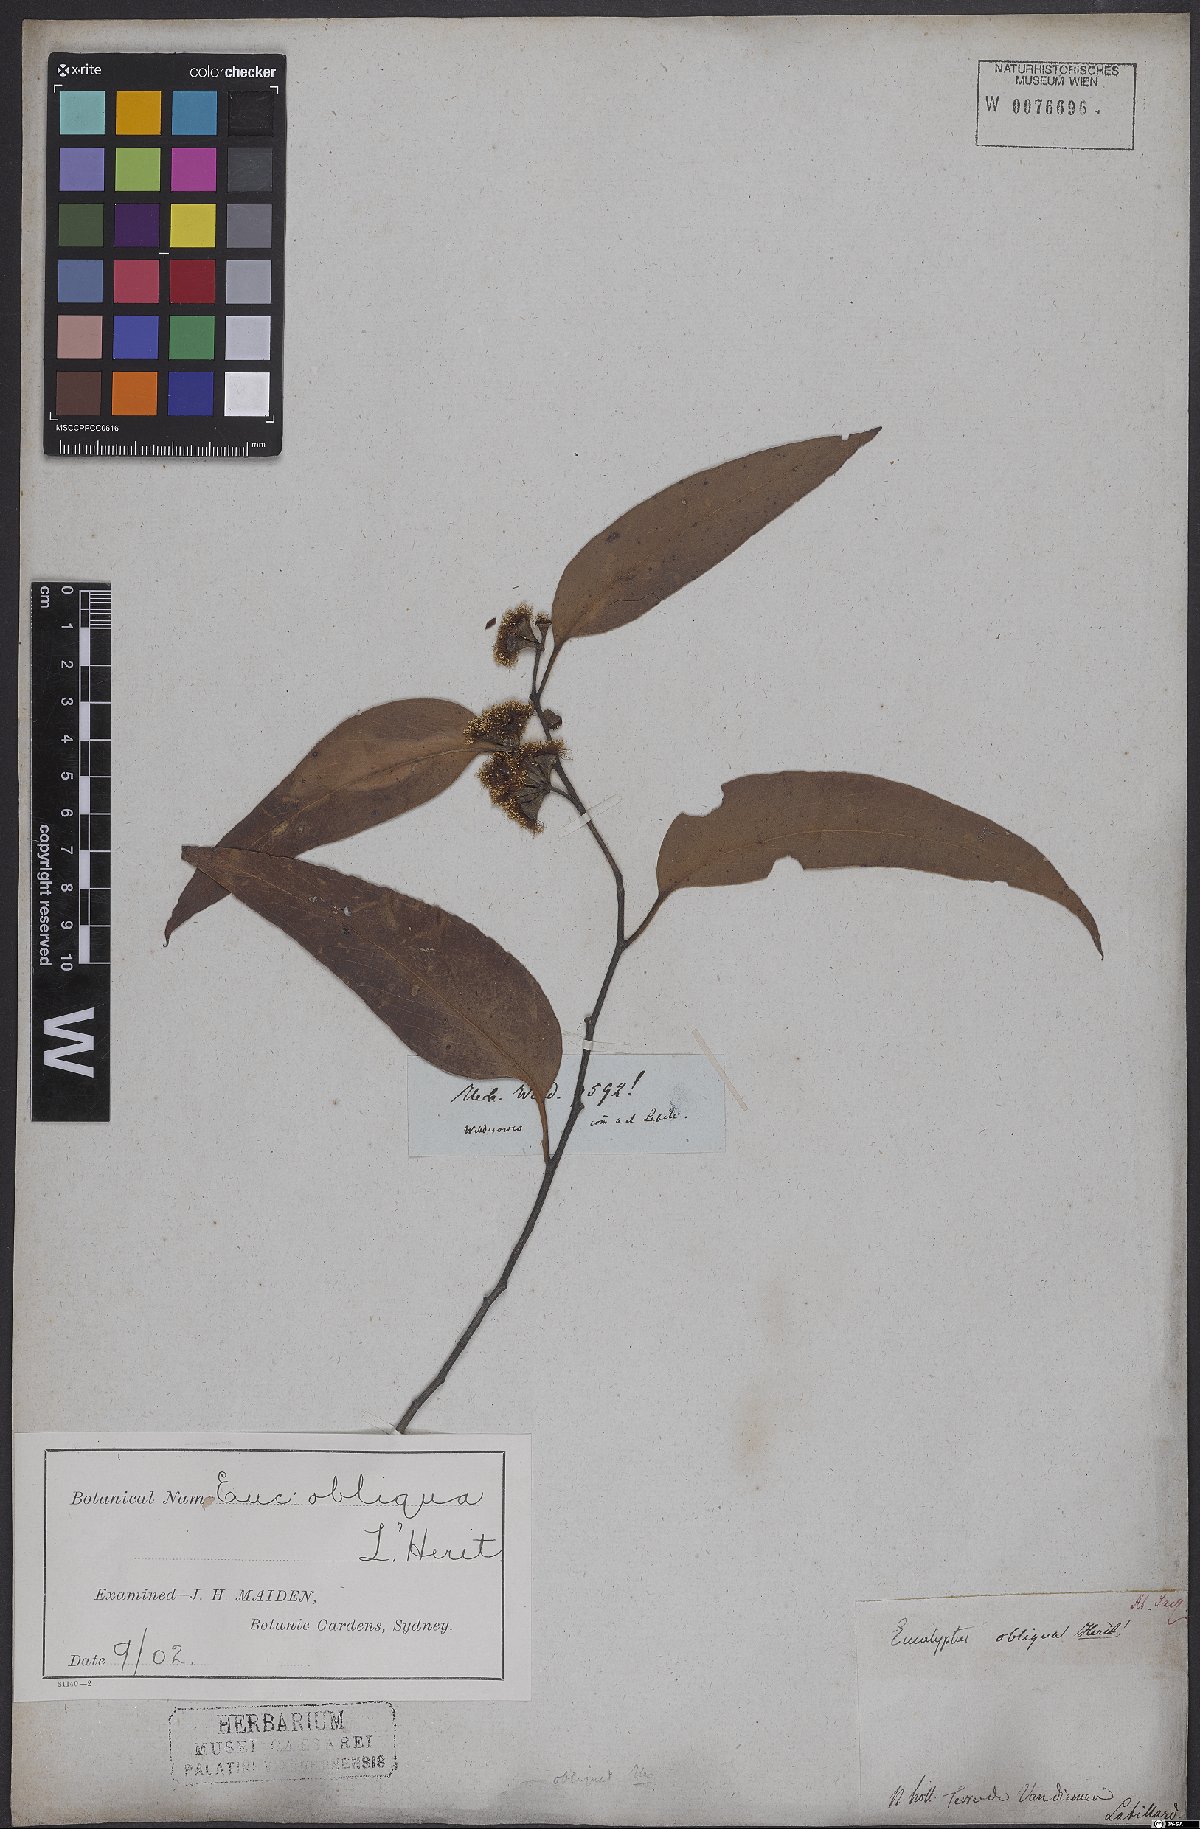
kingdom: Plantae
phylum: Tracheophyta
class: Magnoliopsida
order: Myrtales
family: Myrtaceae
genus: Eucalyptus
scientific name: Eucalyptus obliqua
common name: Messmate stringybark
